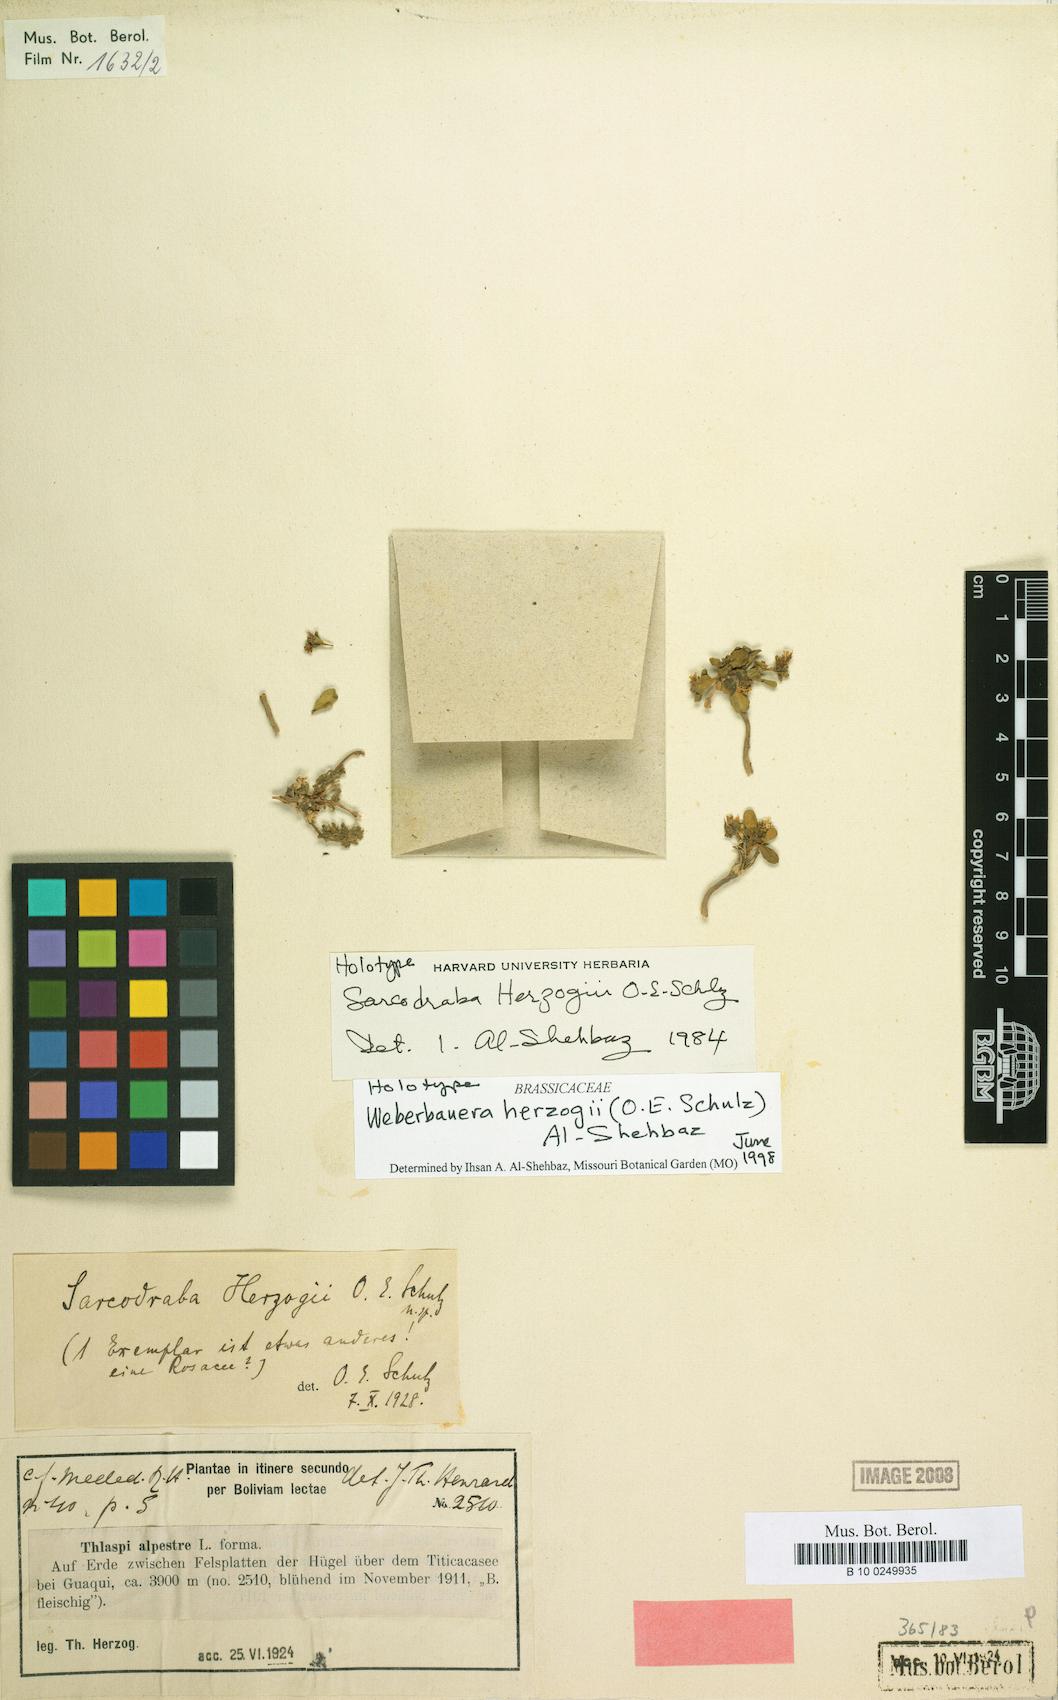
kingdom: Plantae
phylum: Tracheophyta
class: Magnoliopsida
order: Brassicales
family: Brassicaceae
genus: Weberbauera
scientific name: Weberbauera herzogii
